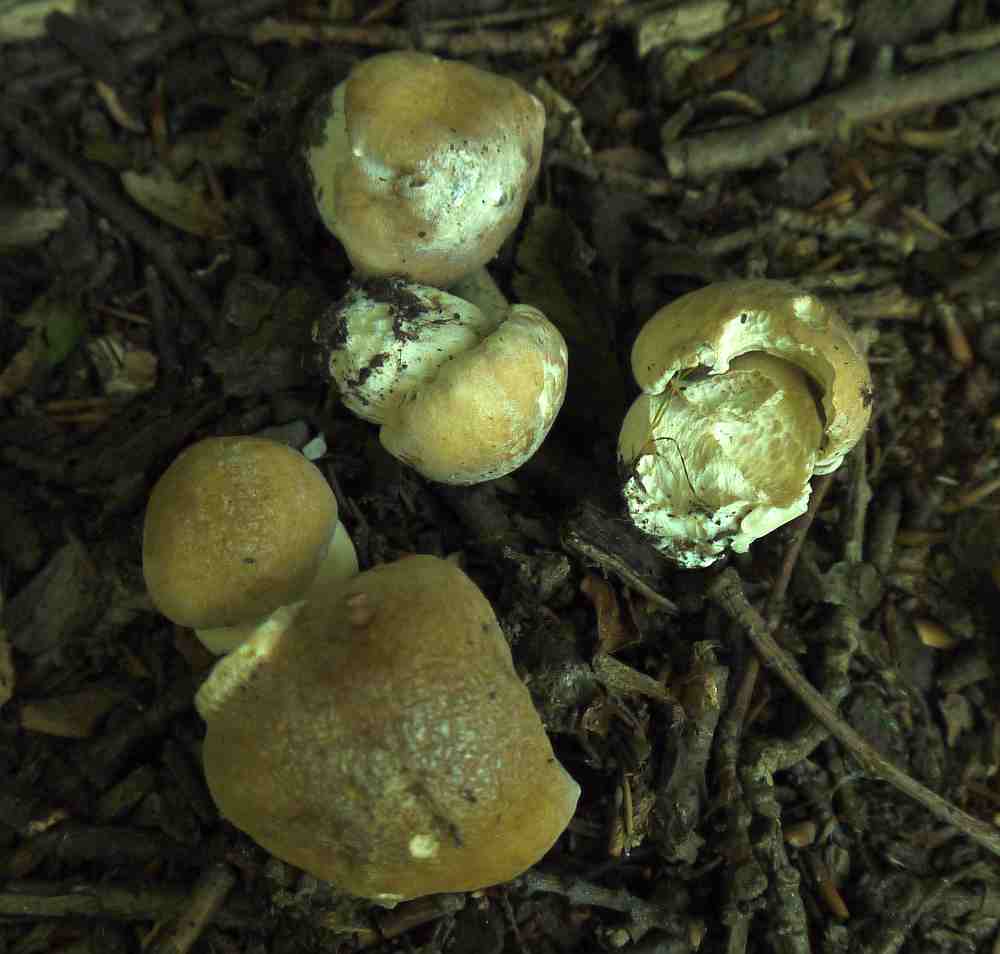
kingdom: Fungi
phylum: Basidiomycota
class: Agaricomycetes
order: Boletales
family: Boletaceae
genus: Boletus
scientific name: Boletus edulis
